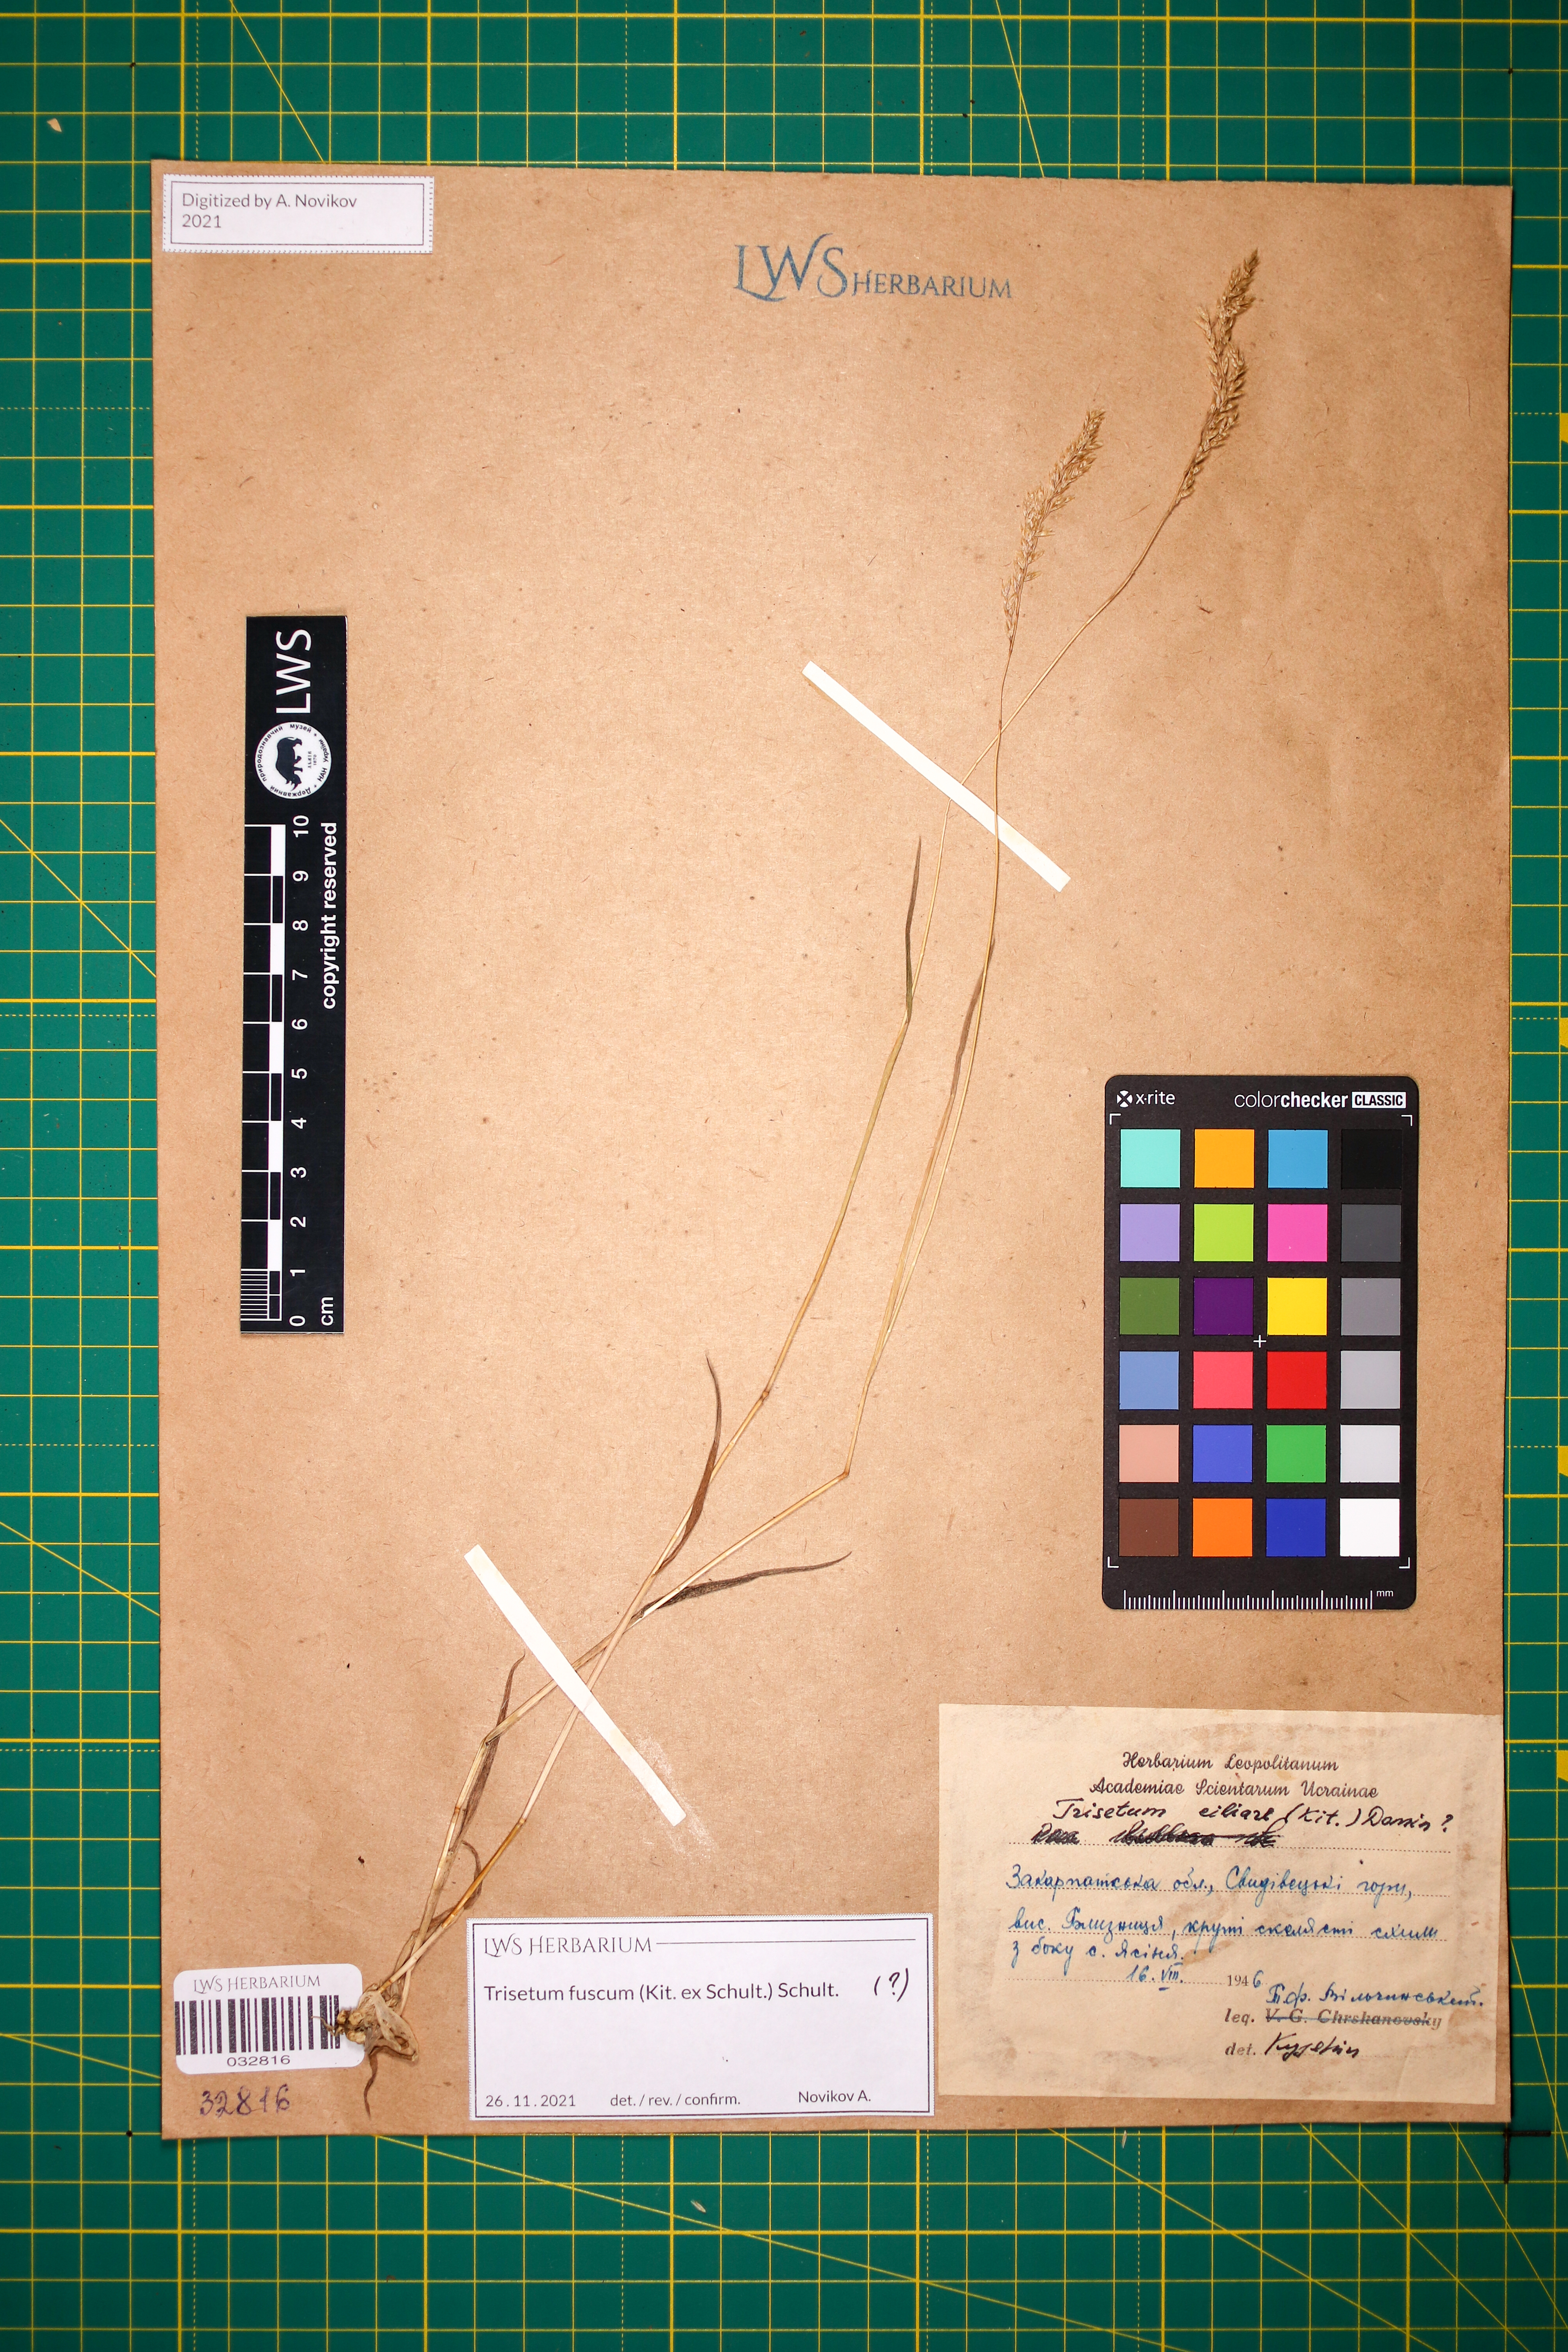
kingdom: Plantae
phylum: Tracheophyta
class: Liliopsida
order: Poales
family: Poaceae
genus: Trisetum
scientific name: Trisetum fuscum
